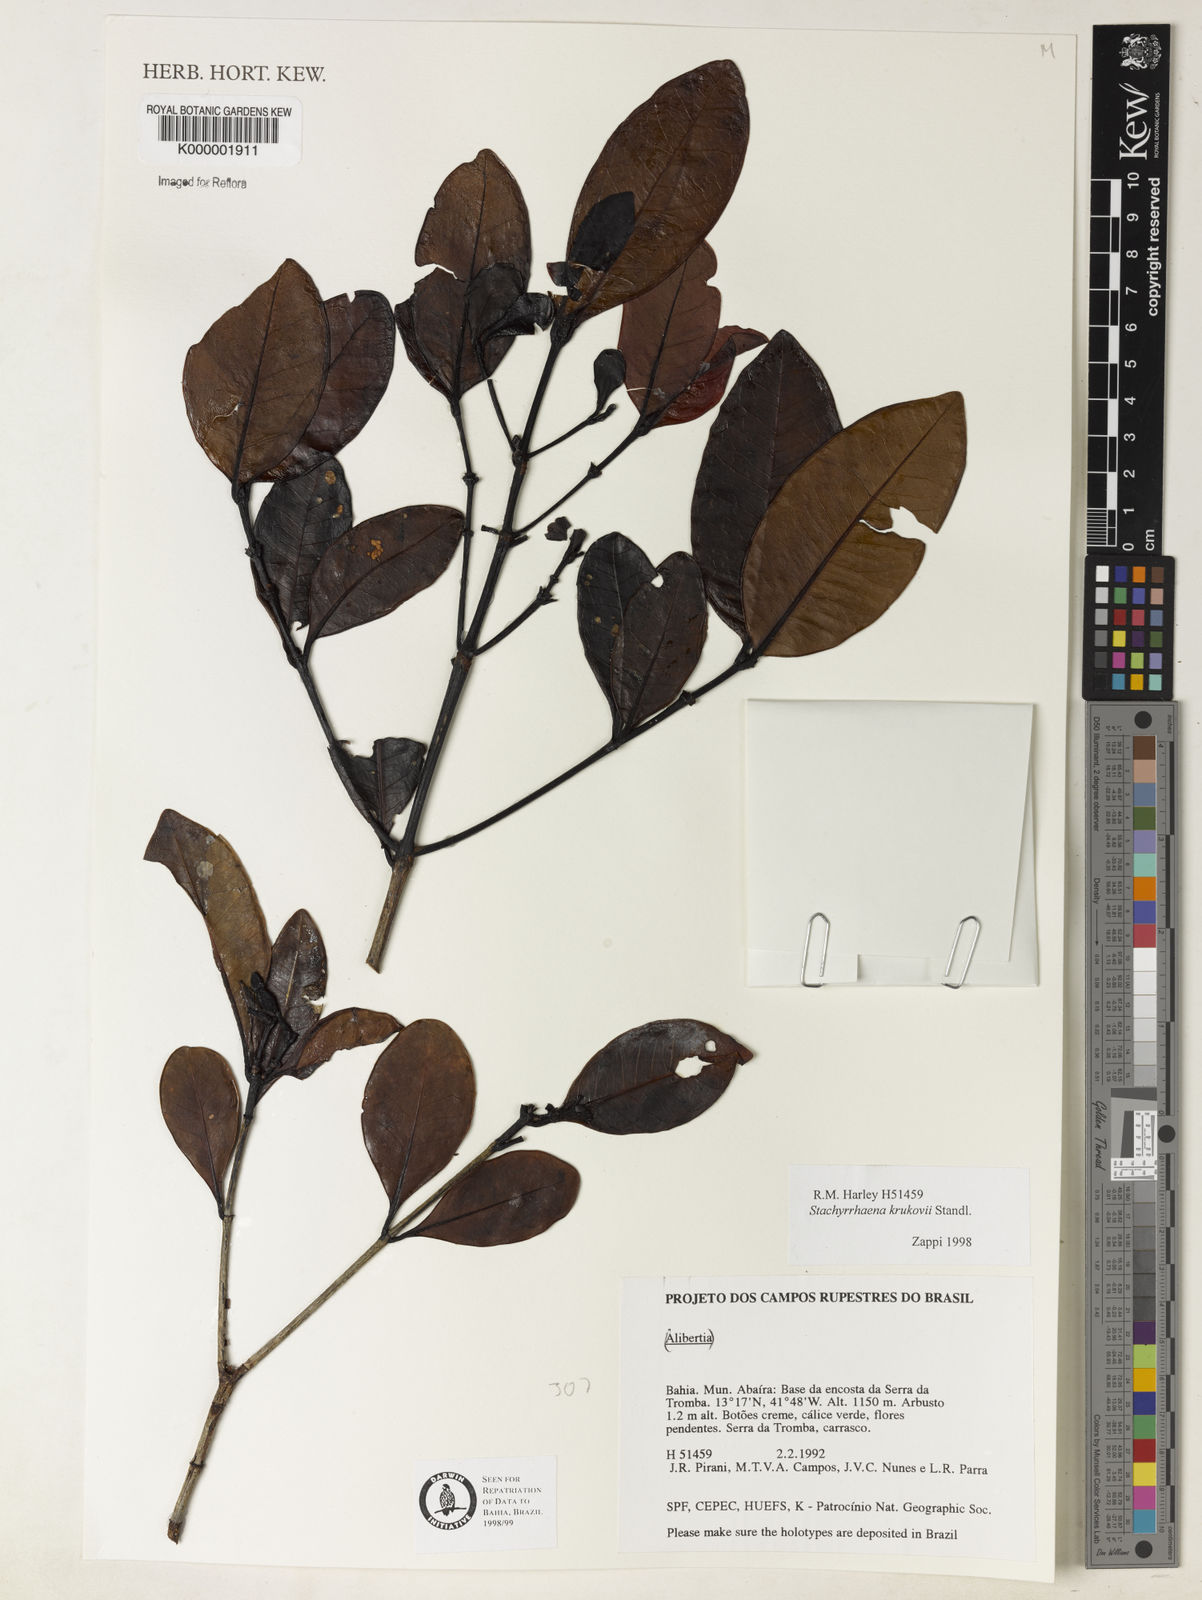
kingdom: Plantae
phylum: Tracheophyta
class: Magnoliopsida
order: Gentianales
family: Rubiaceae
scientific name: Rubiaceae
